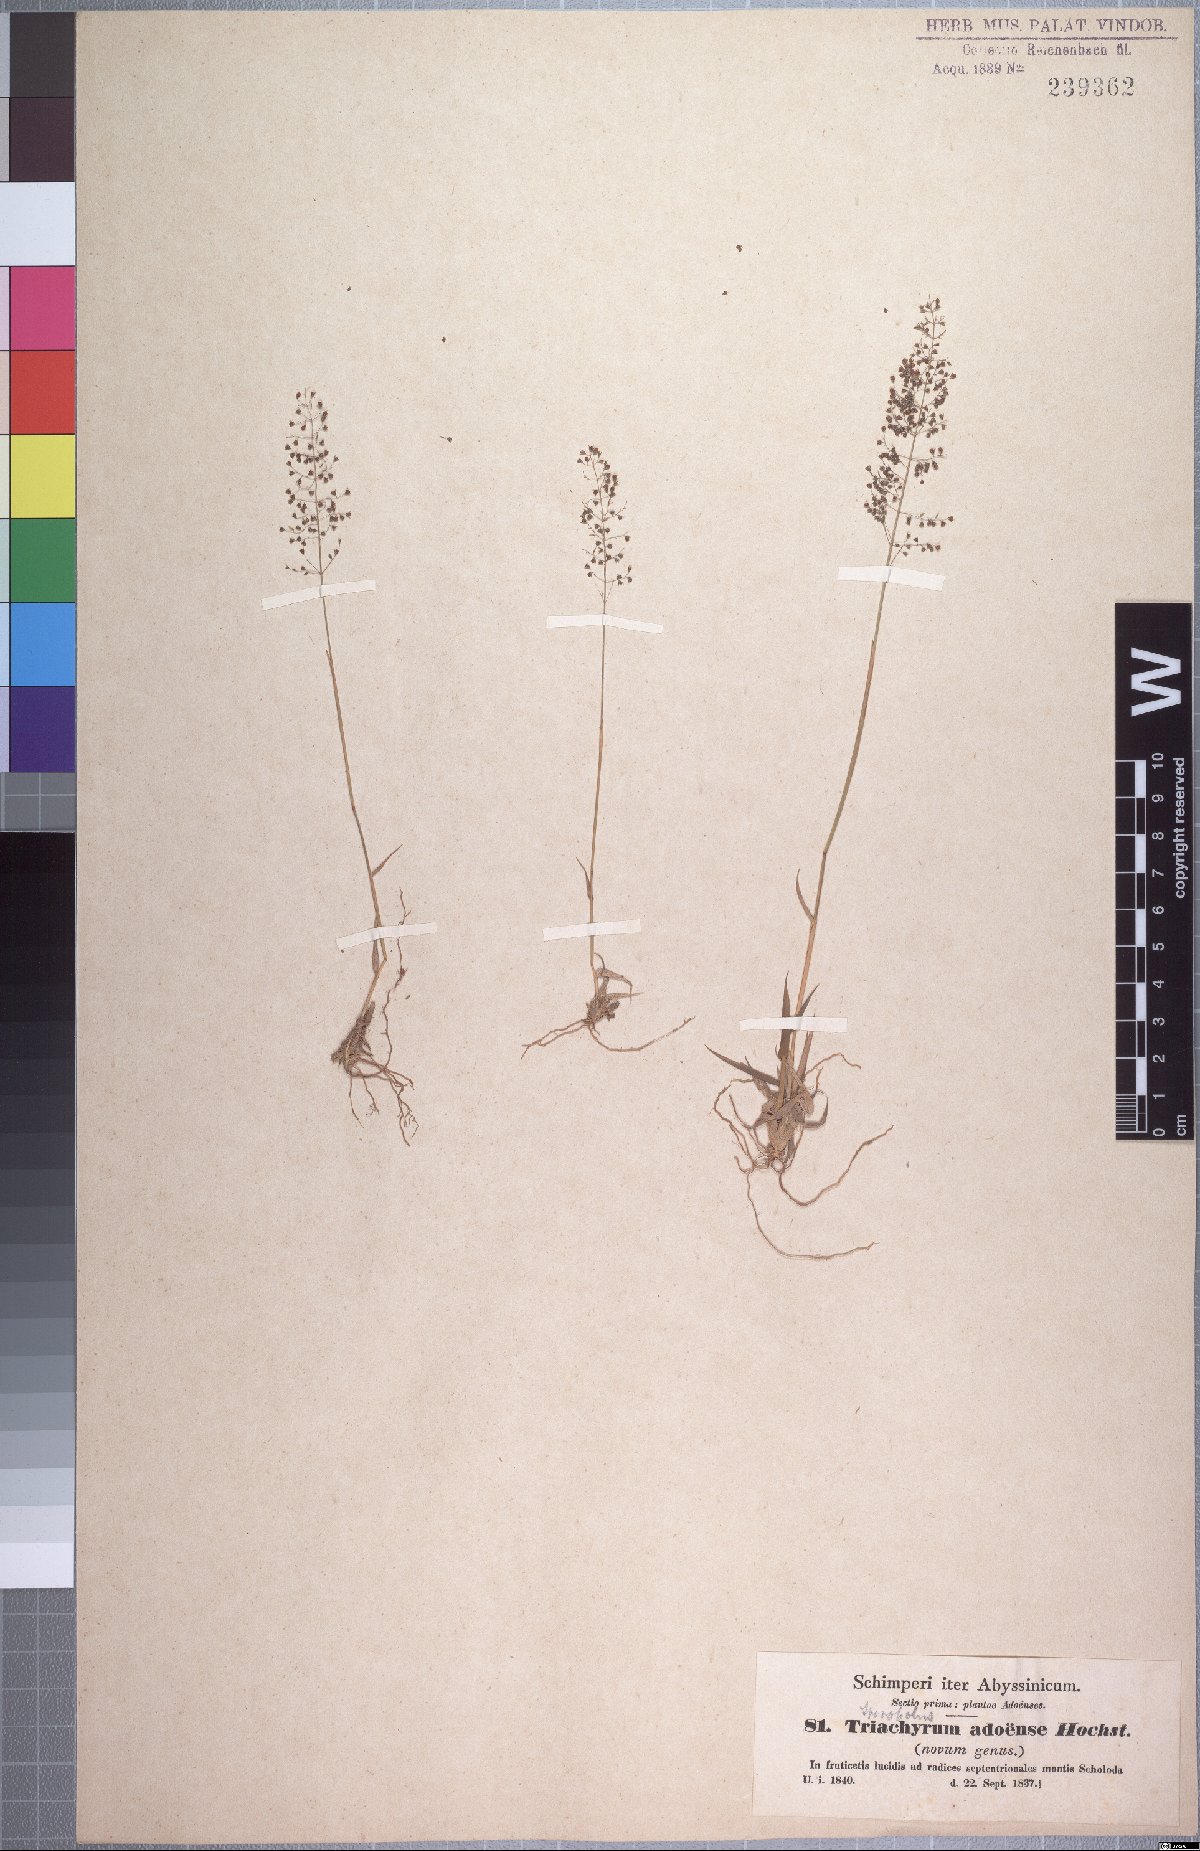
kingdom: Plantae
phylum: Tracheophyta
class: Liliopsida
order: Poales
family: Poaceae
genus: Sporobolus
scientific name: Sporobolus discosporus
